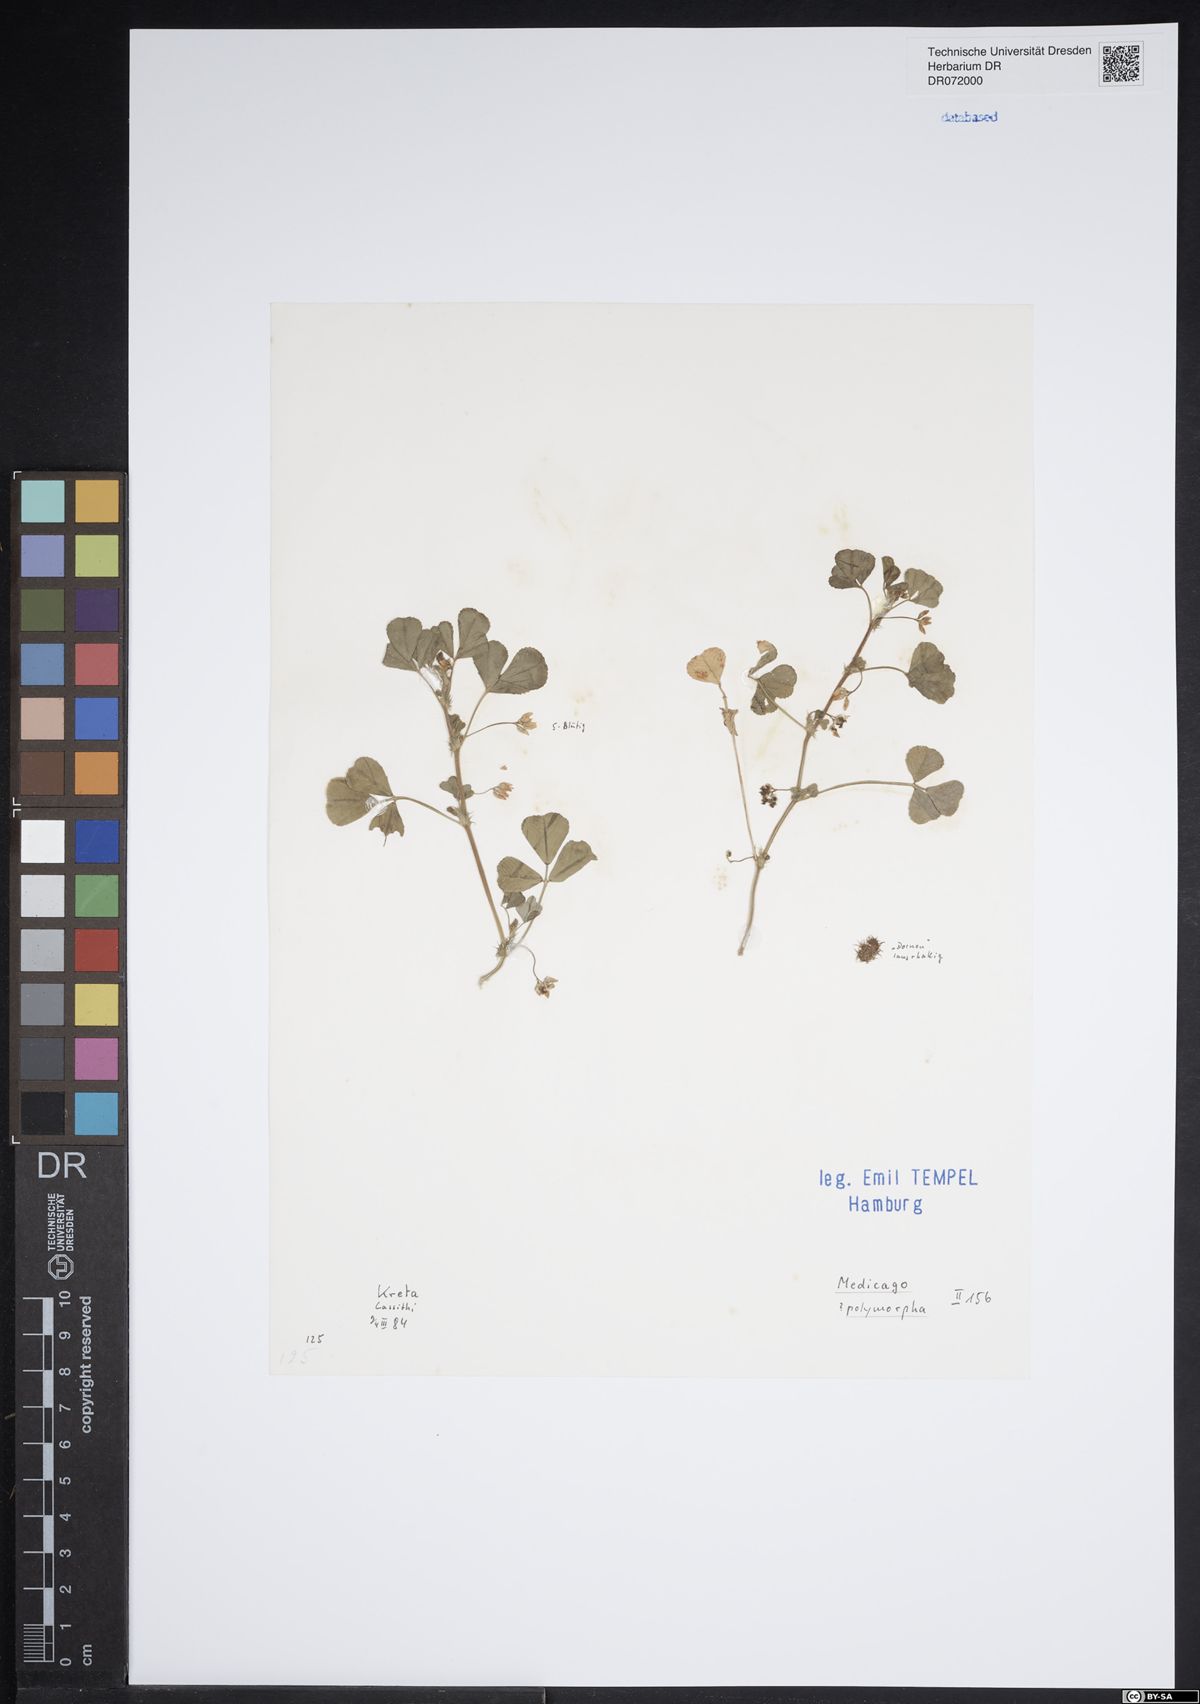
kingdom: Plantae
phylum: Tracheophyta
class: Magnoliopsida
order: Fabales
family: Fabaceae
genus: Medicago
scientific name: Medicago polymorpha
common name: Burclover
